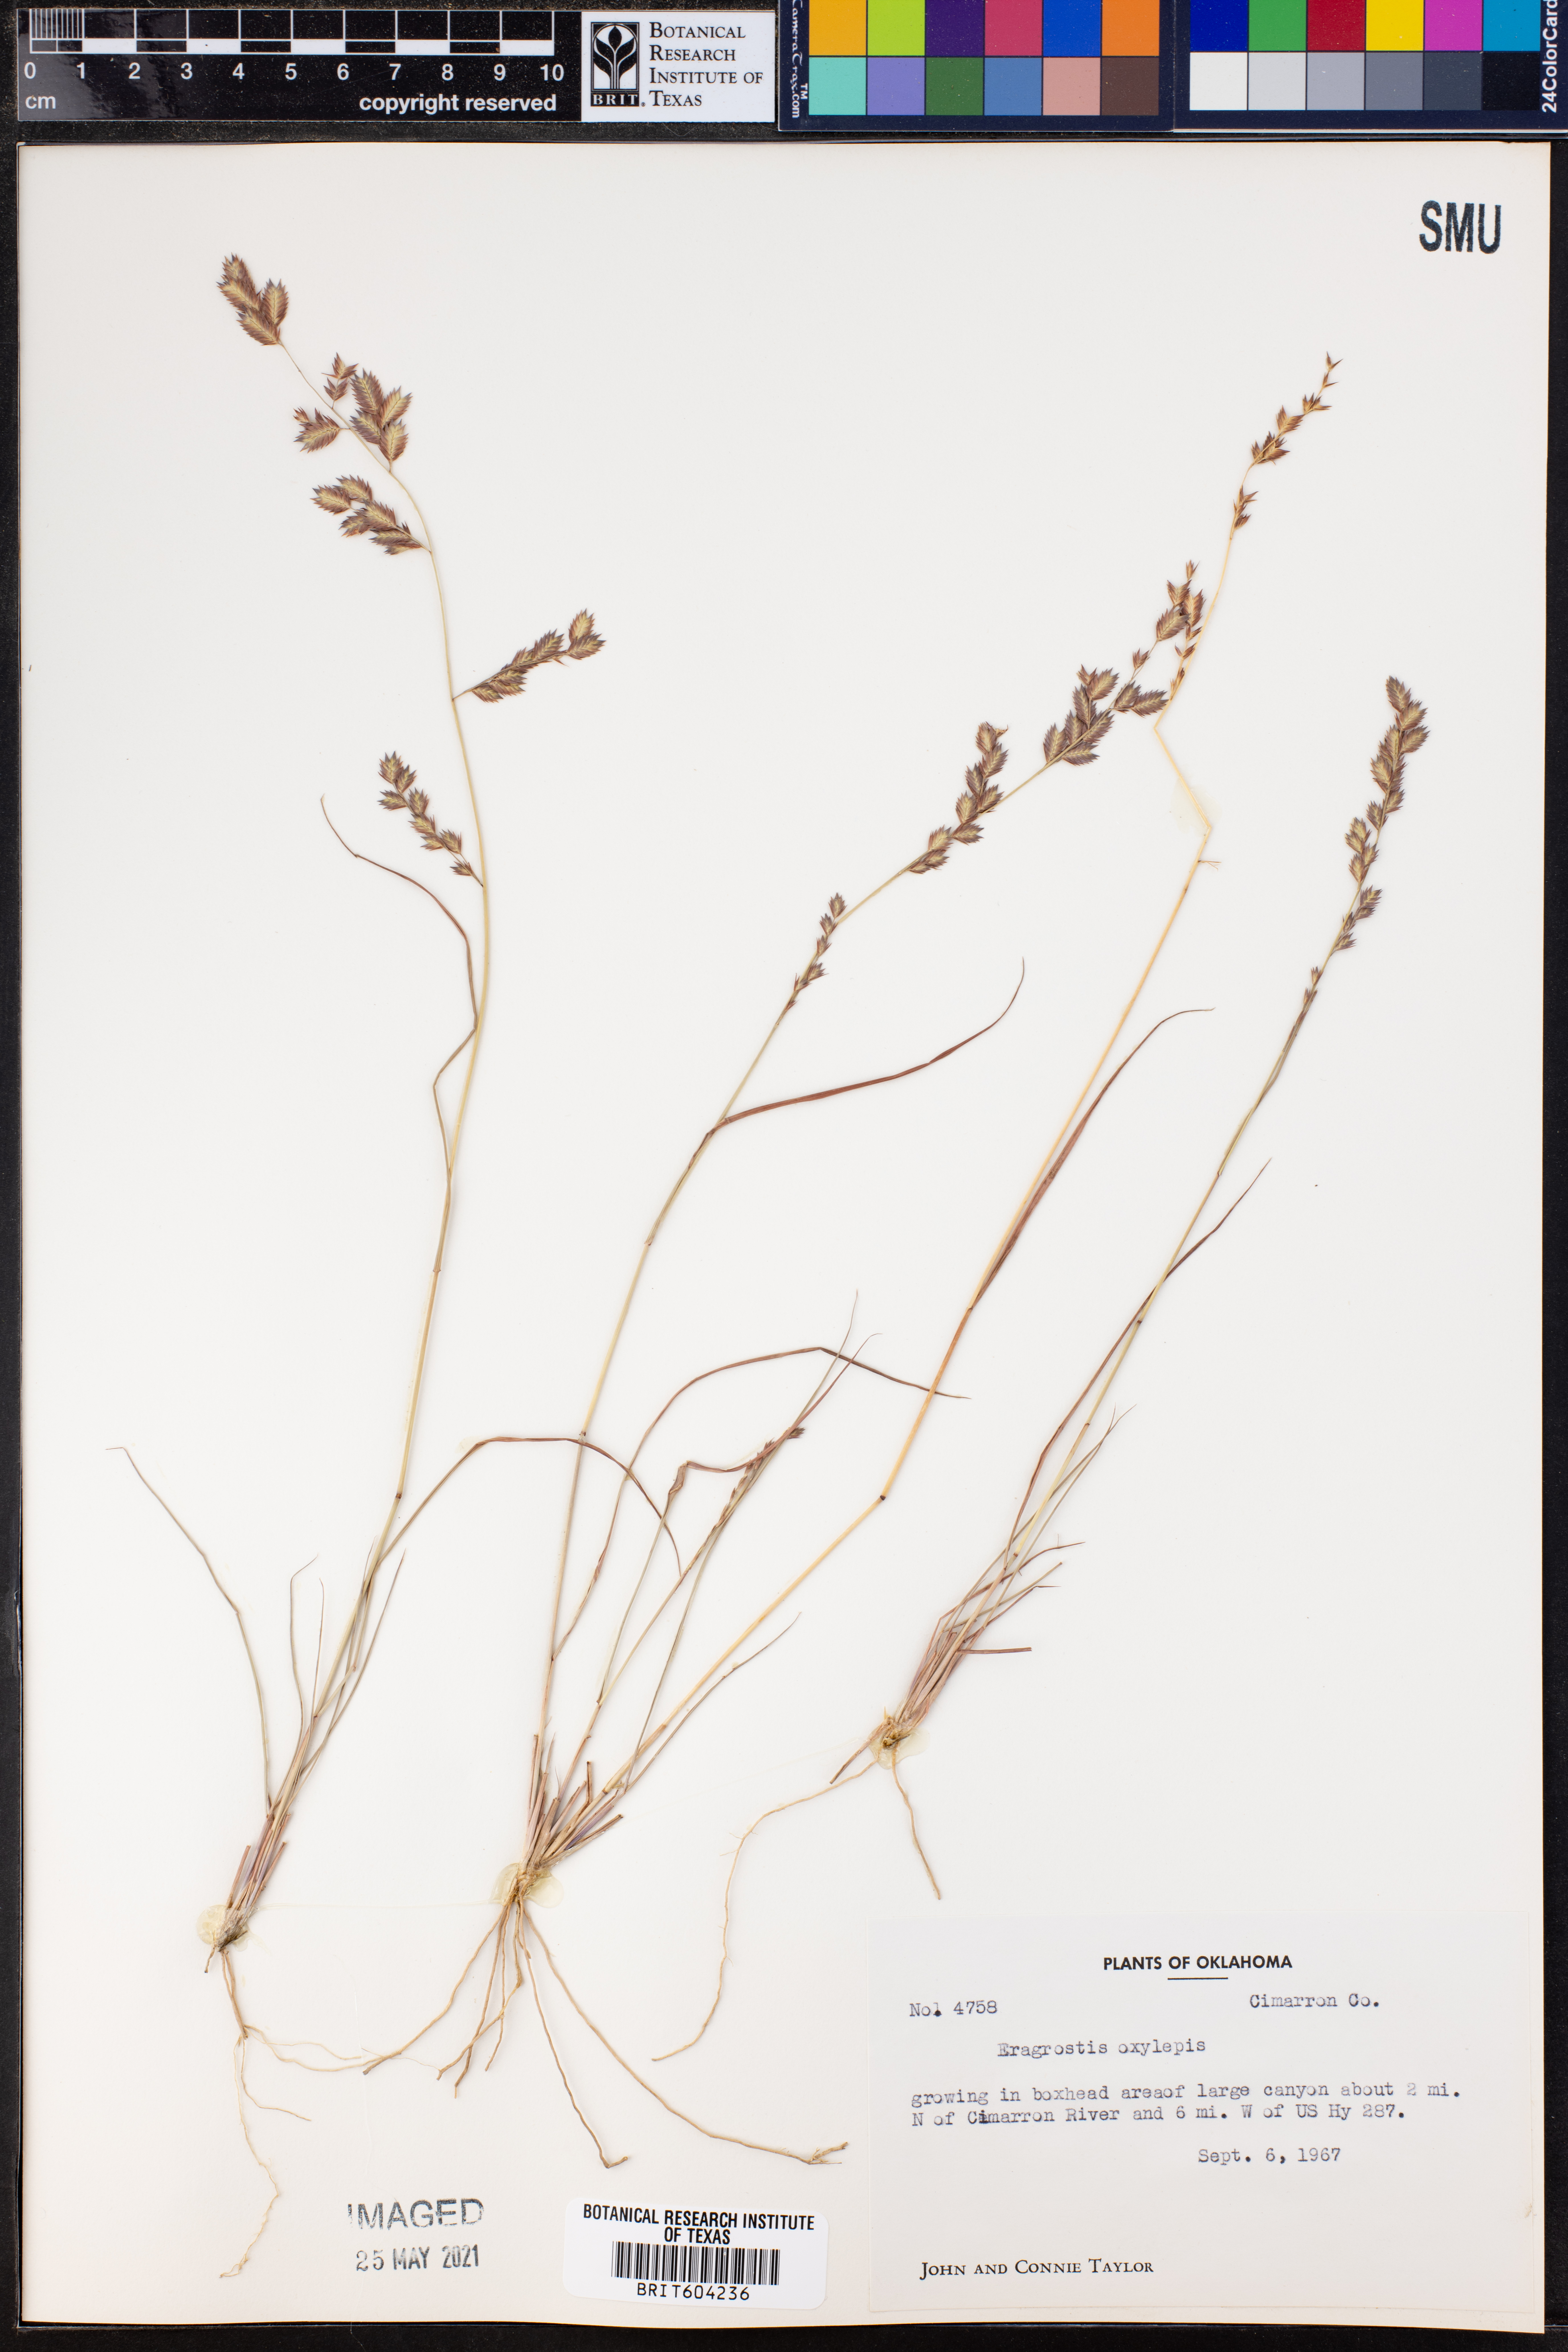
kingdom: Plantae
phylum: Tracheophyta
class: Liliopsida
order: Poales
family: Poaceae
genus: Eragrostis
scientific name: Eragrostis secundiflora
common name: Red love grass
